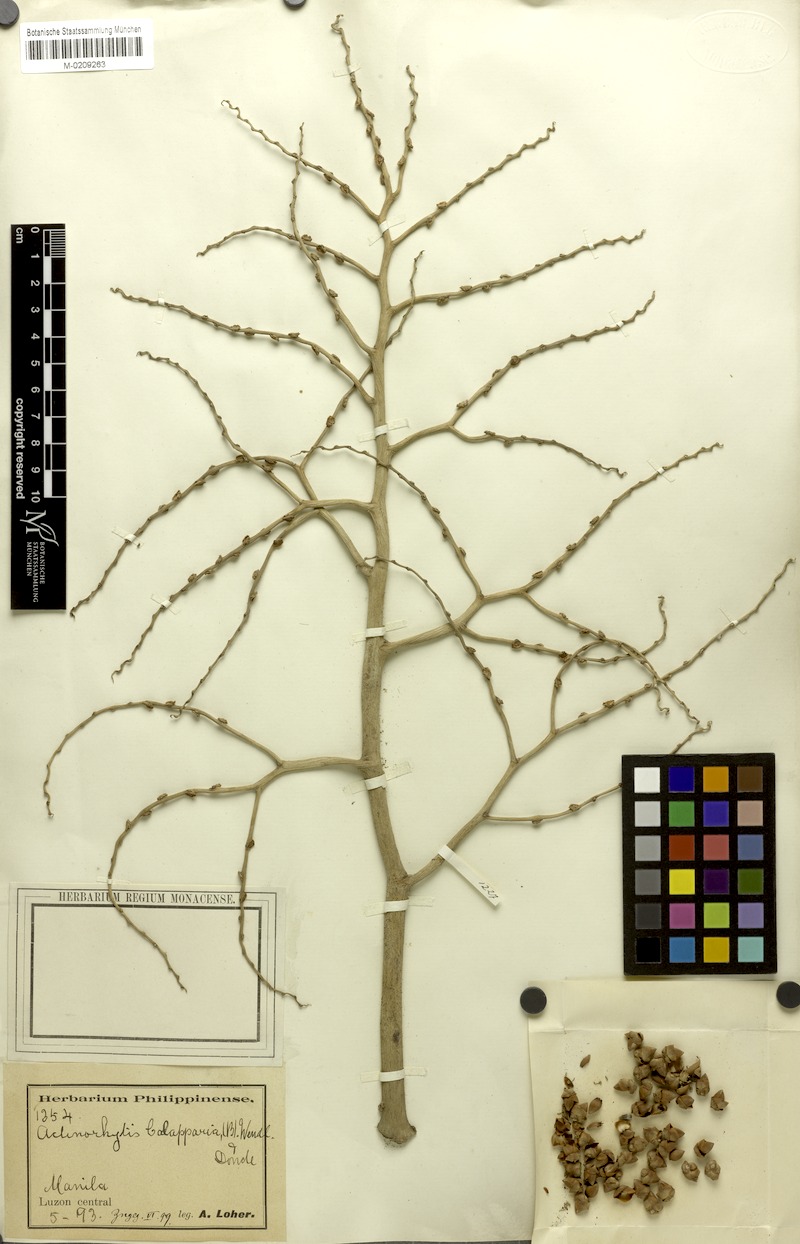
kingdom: Plantae
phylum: Tracheophyta
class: Liliopsida
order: Arecales
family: Arecaceae
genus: Actinorhytis
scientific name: Actinorhytis calapparia
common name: Calappa palm
